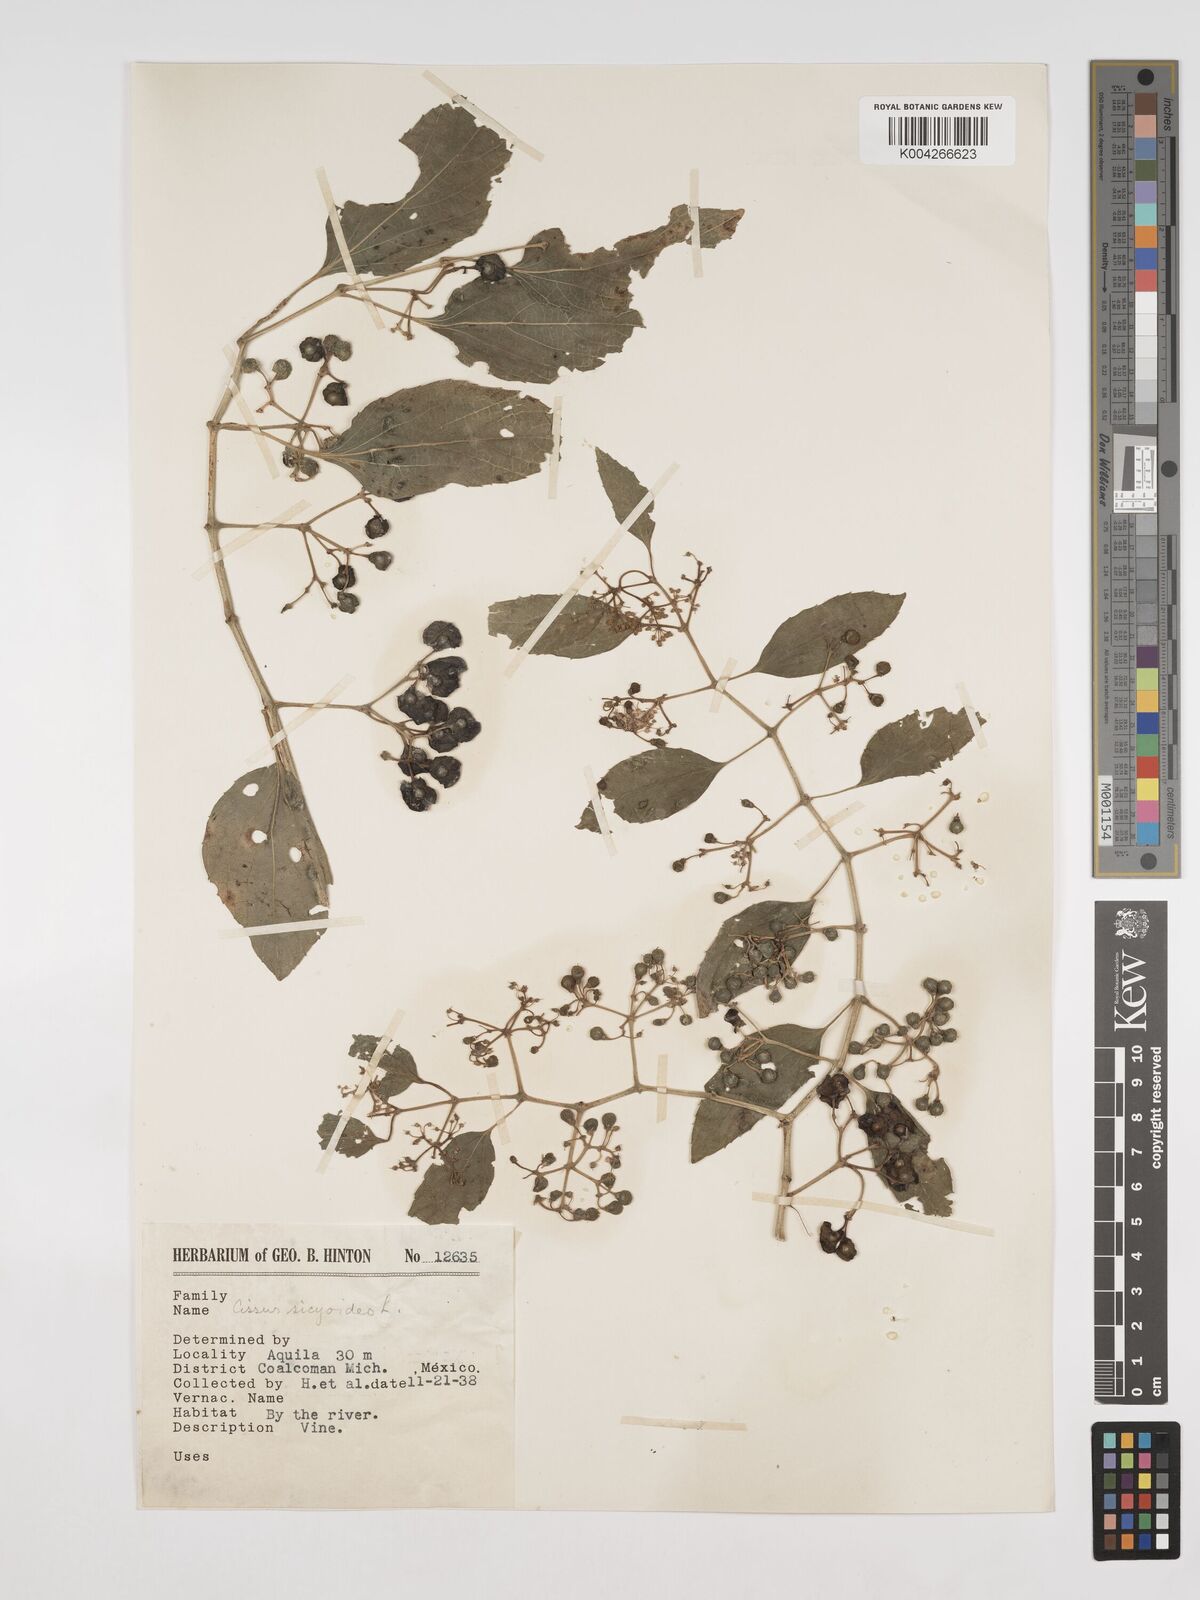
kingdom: Plantae
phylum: Tracheophyta
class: Magnoliopsida
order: Vitales
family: Vitaceae
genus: Cissus
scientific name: Cissus
